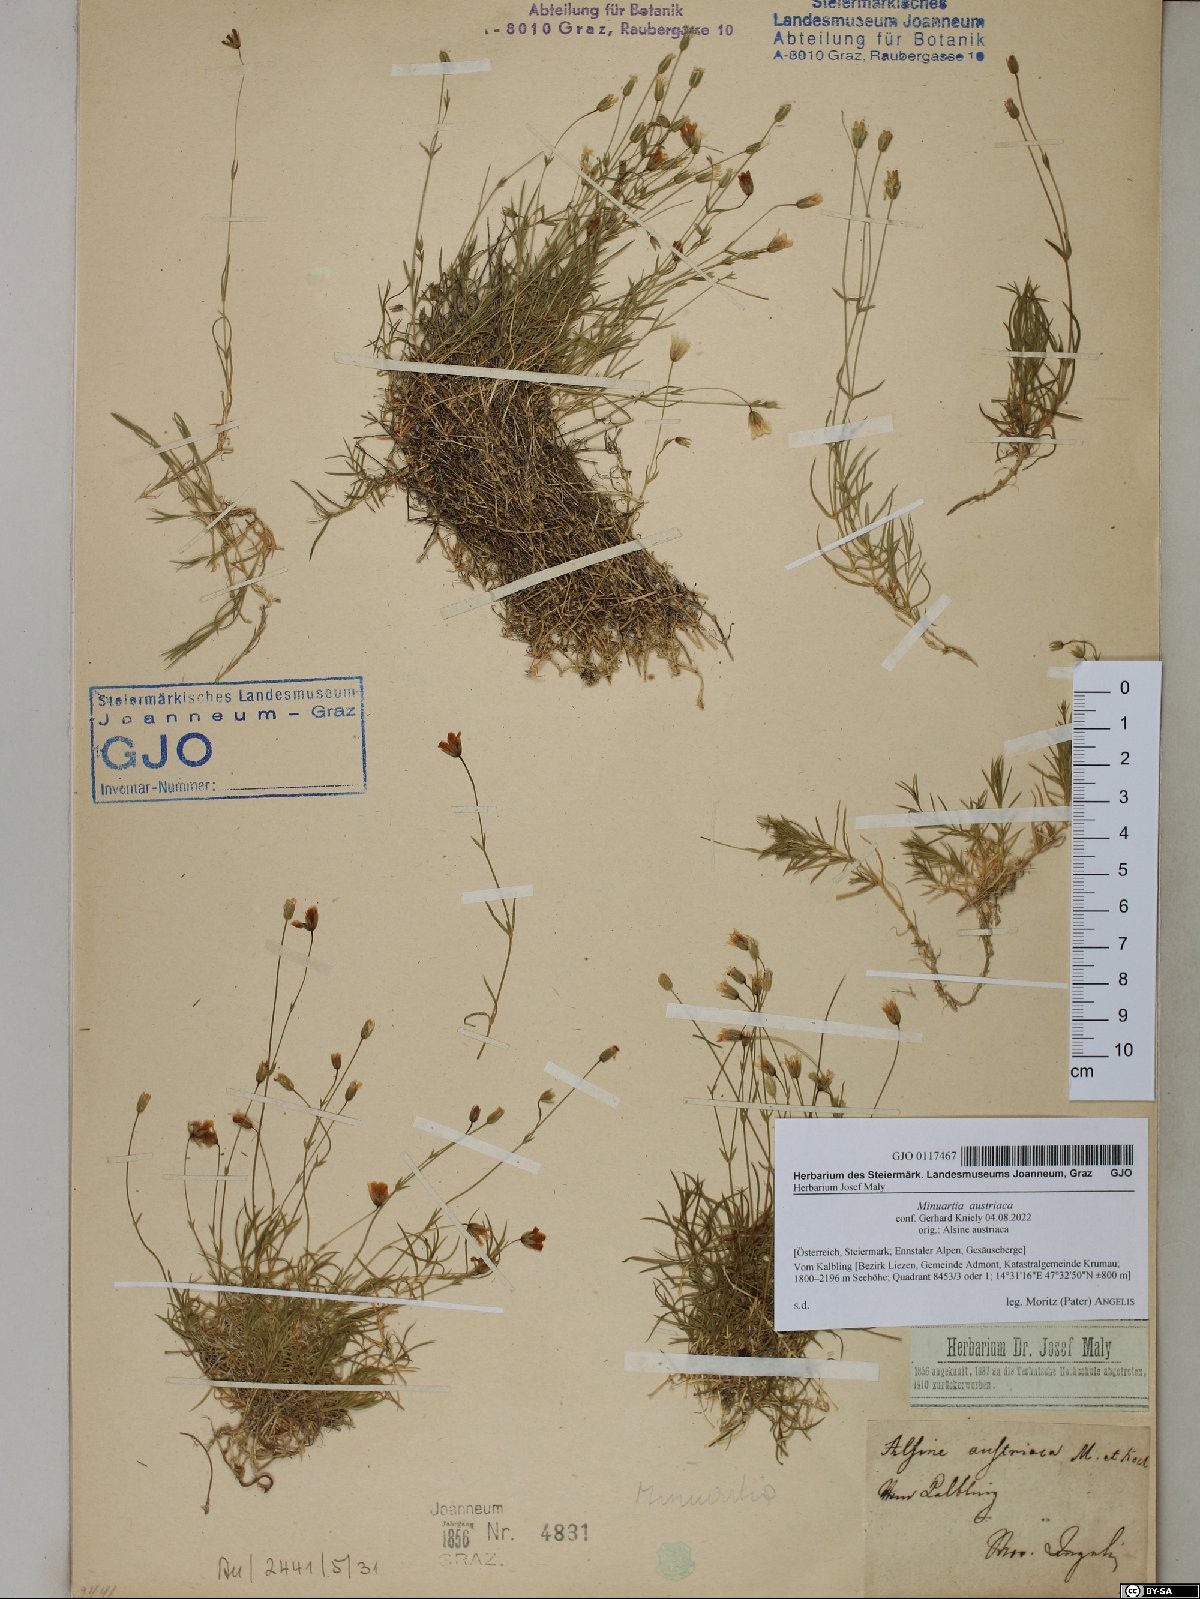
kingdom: Plantae
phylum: Tracheophyta
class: Magnoliopsida
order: Caryophyllales
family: Caryophyllaceae
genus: Sabulina
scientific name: Sabulina austriaca
